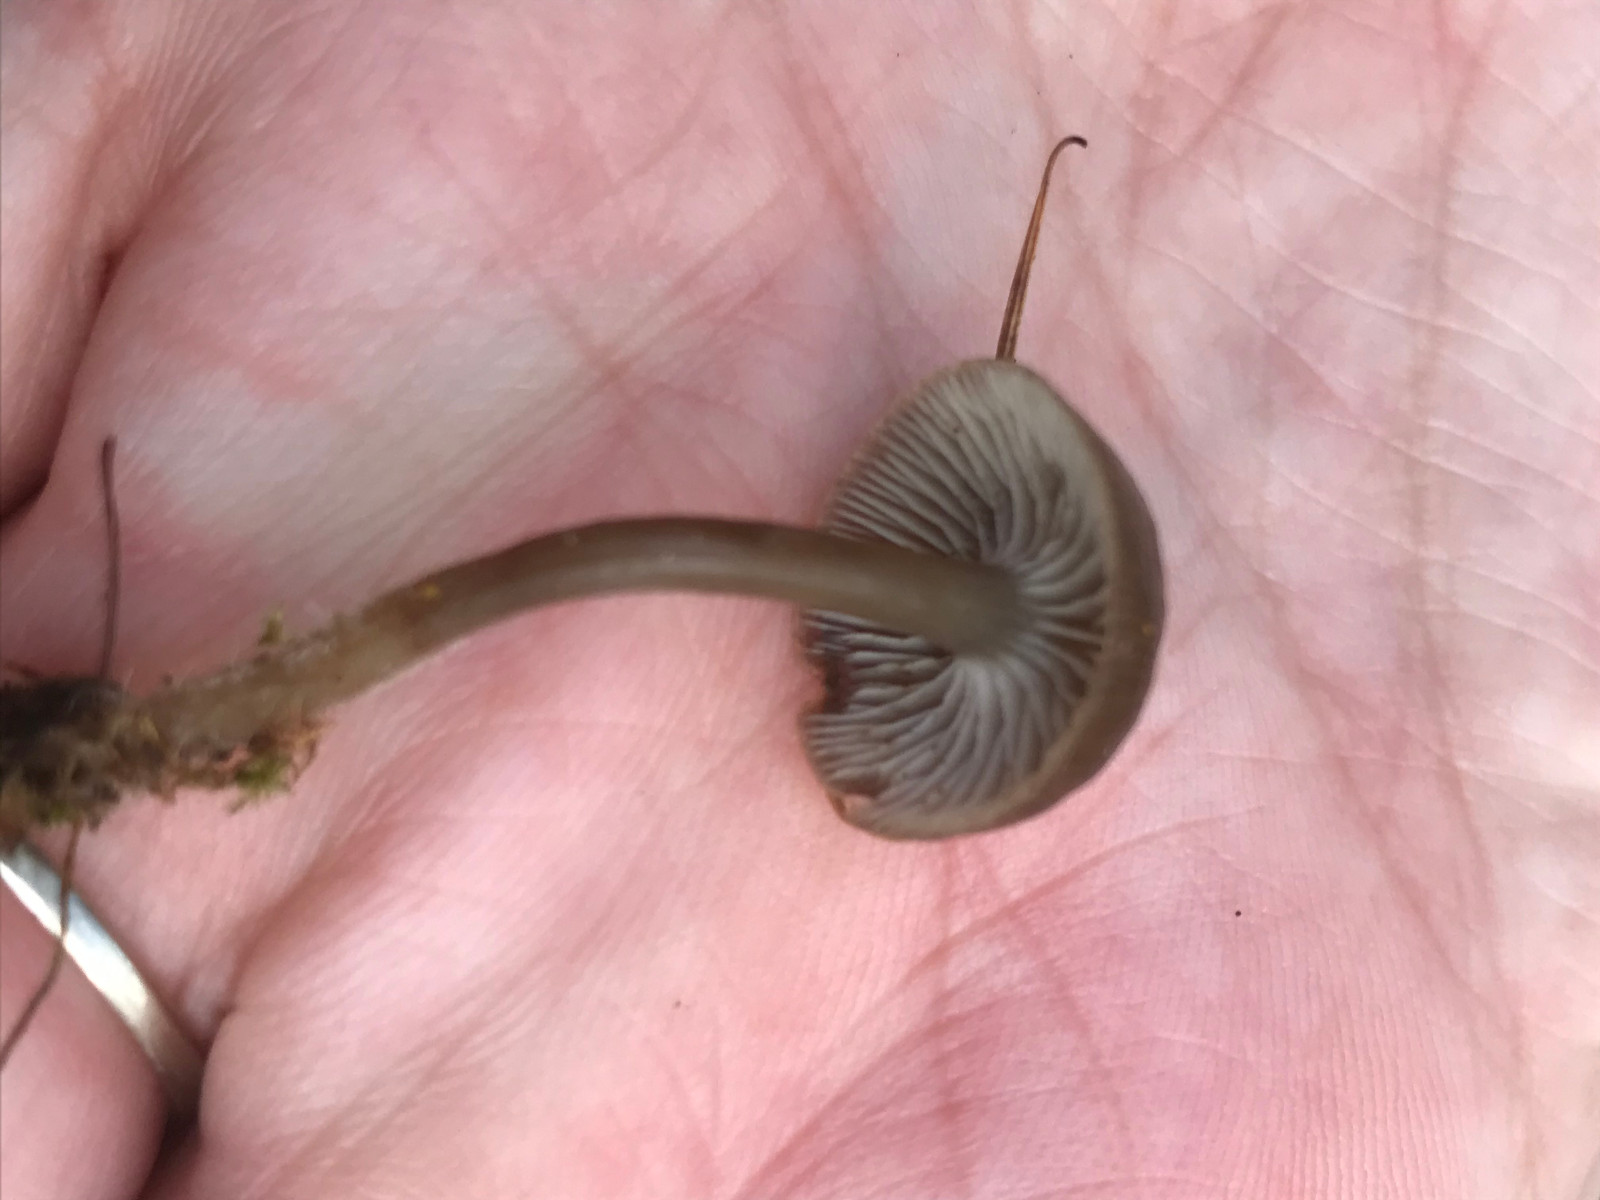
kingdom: Fungi
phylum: Basidiomycota
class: Agaricomycetes
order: Agaricales
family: Mycenaceae
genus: Mycena
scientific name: Mycena tintinnabulum
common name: vinter-huesvamp
